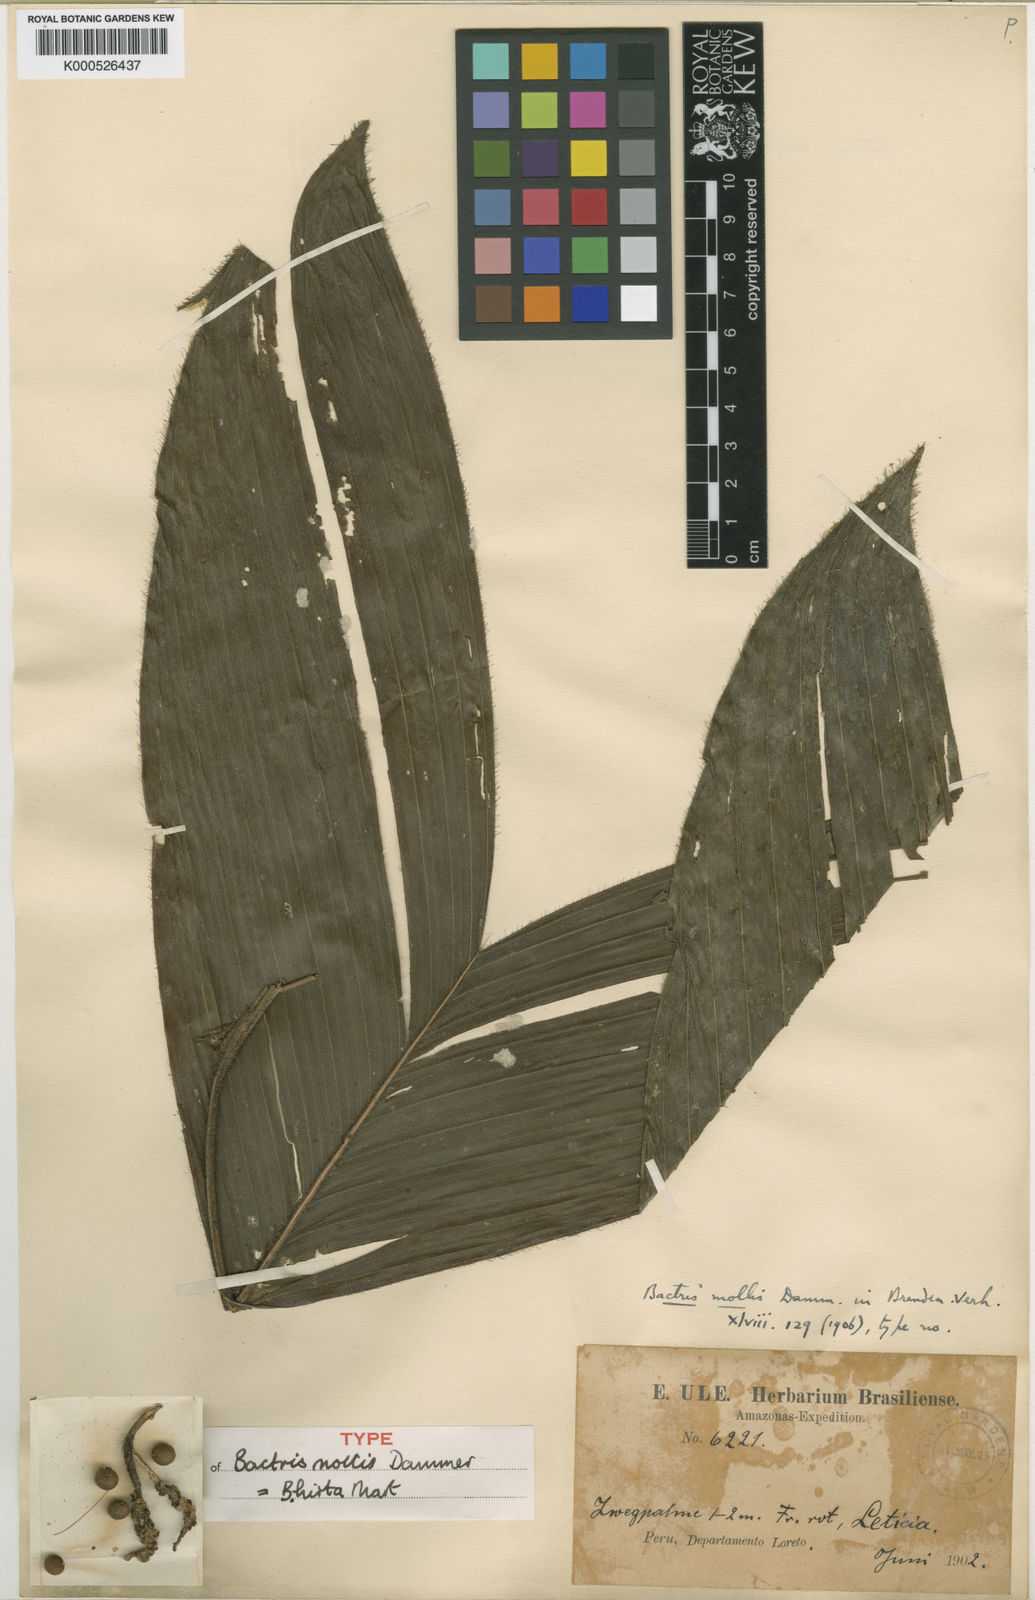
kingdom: Plantae
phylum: Tracheophyta
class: Liliopsida
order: Arecales
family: Arecaceae
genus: Bactris
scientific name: Bactris hirta
